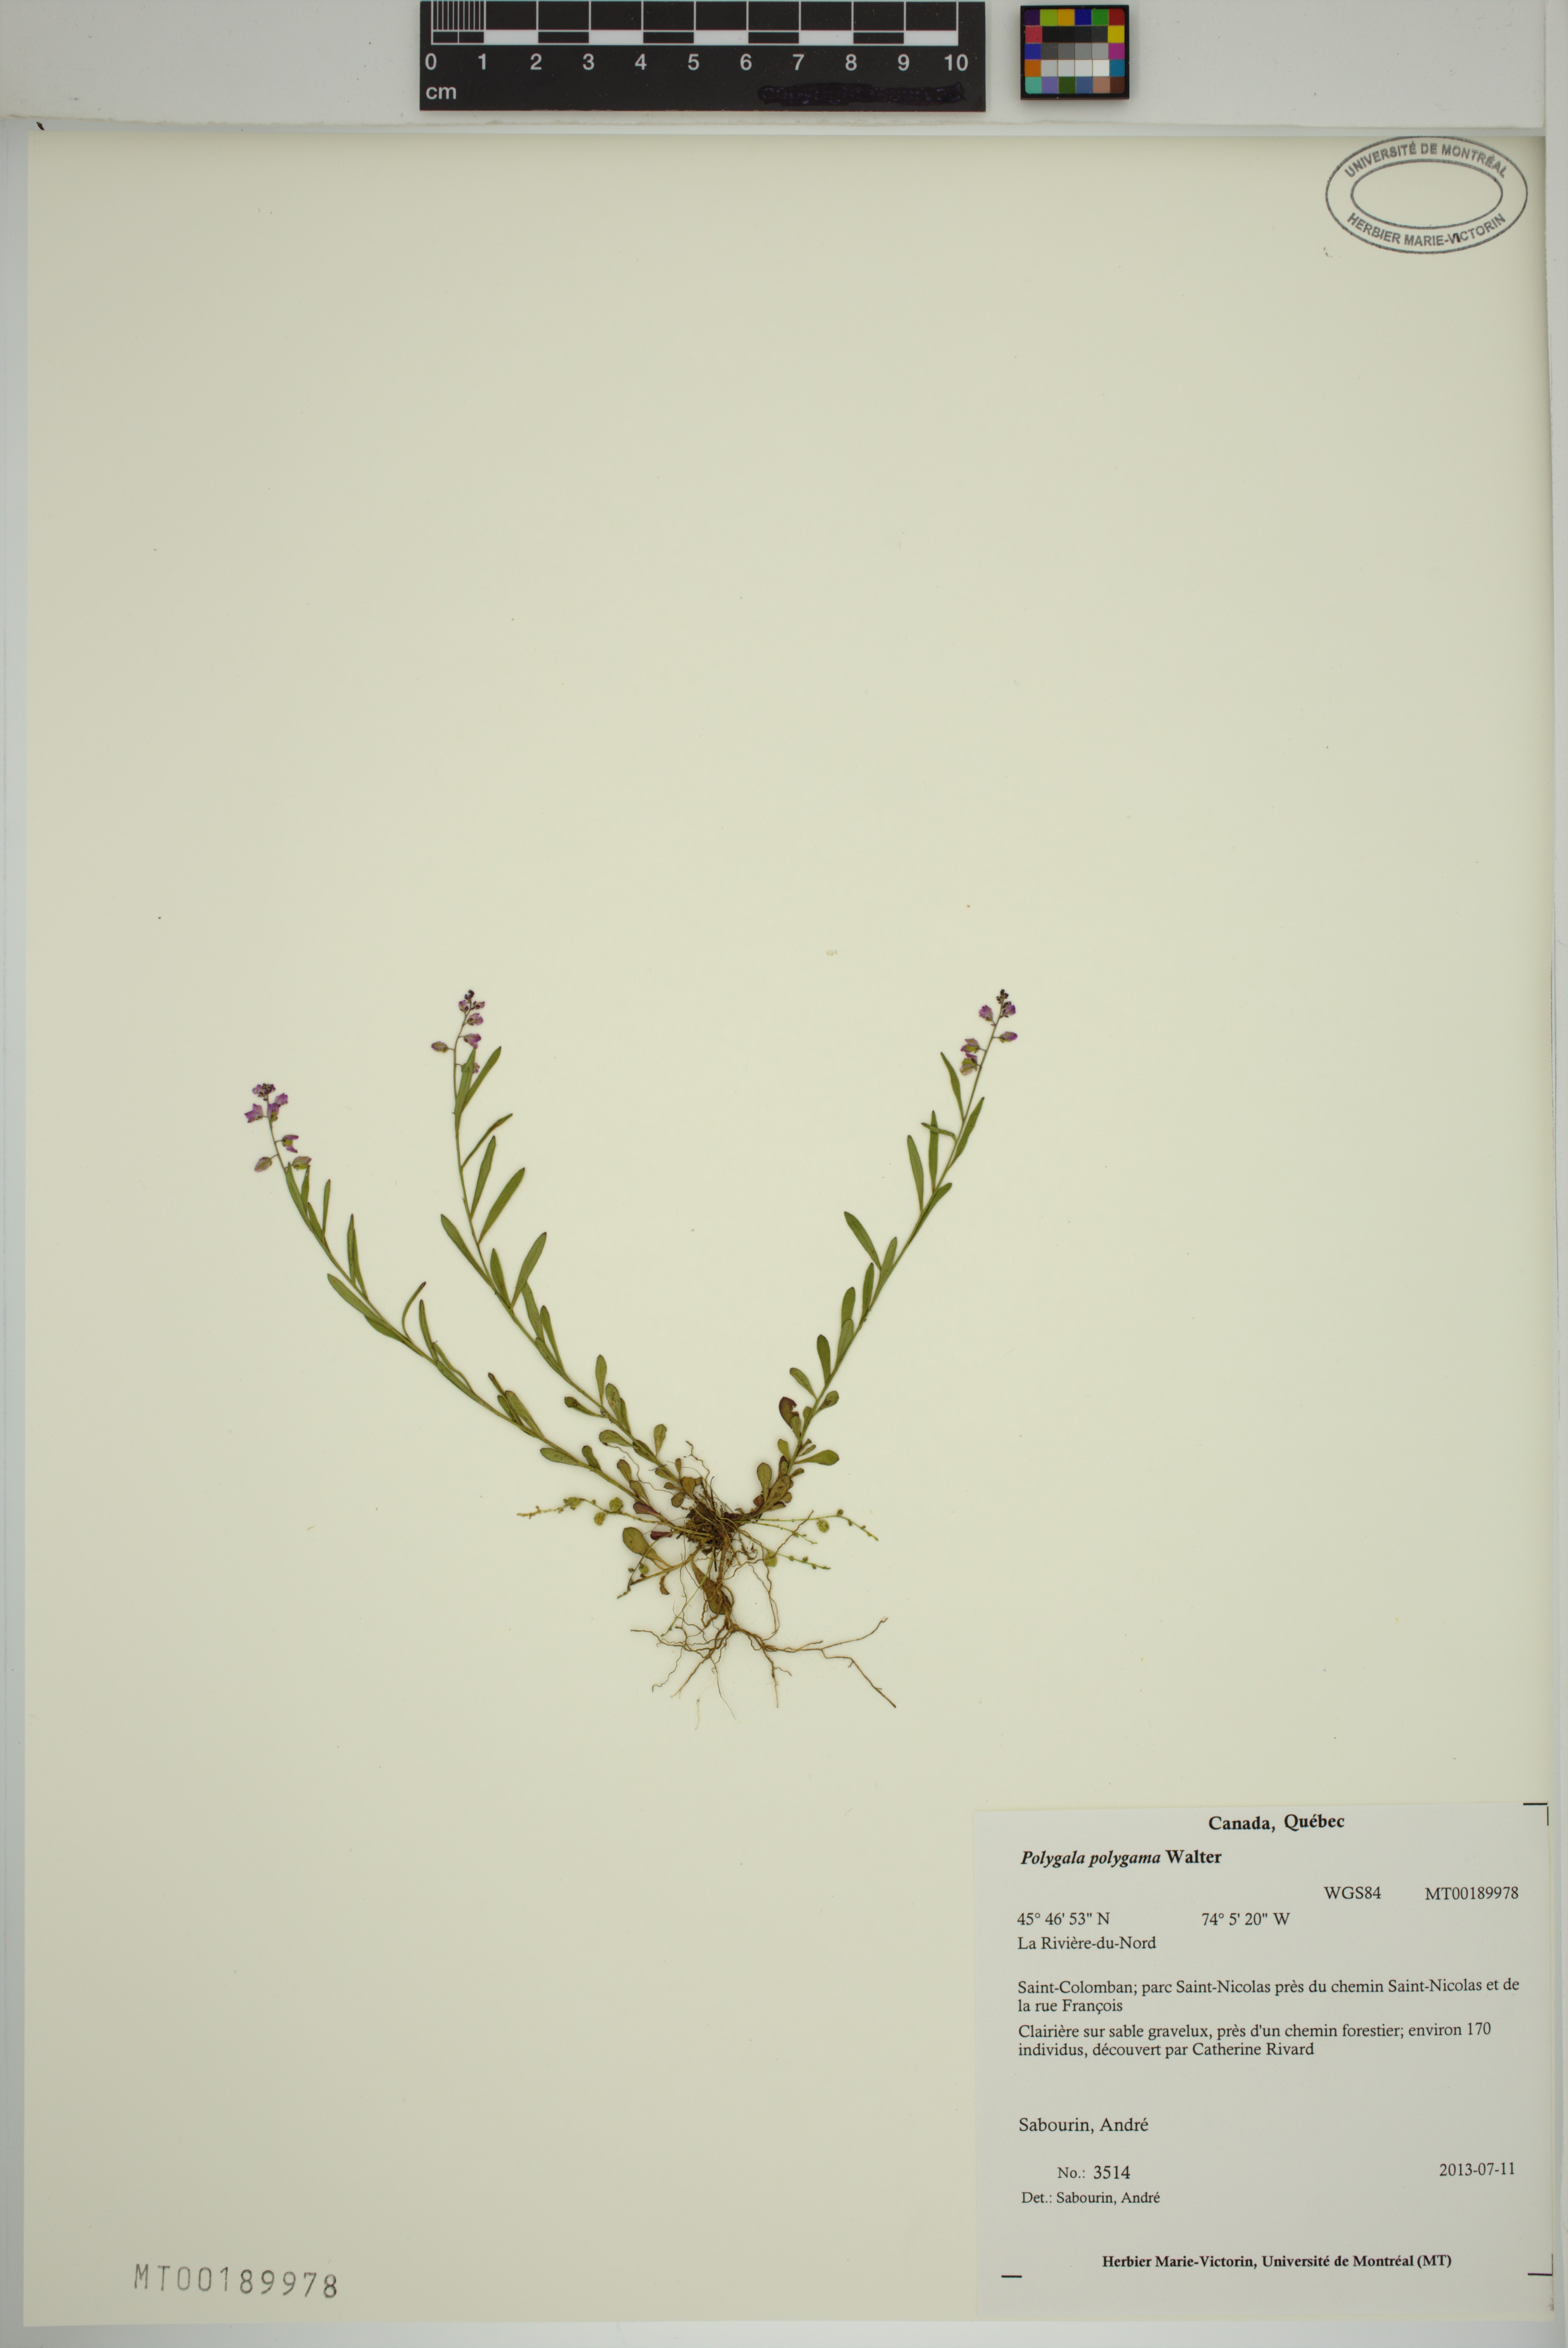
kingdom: Plantae
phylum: Tracheophyta
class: Magnoliopsida
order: Fabales
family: Polygalaceae
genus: Polygala
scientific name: Polygala polygama
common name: Bitter milkwort
